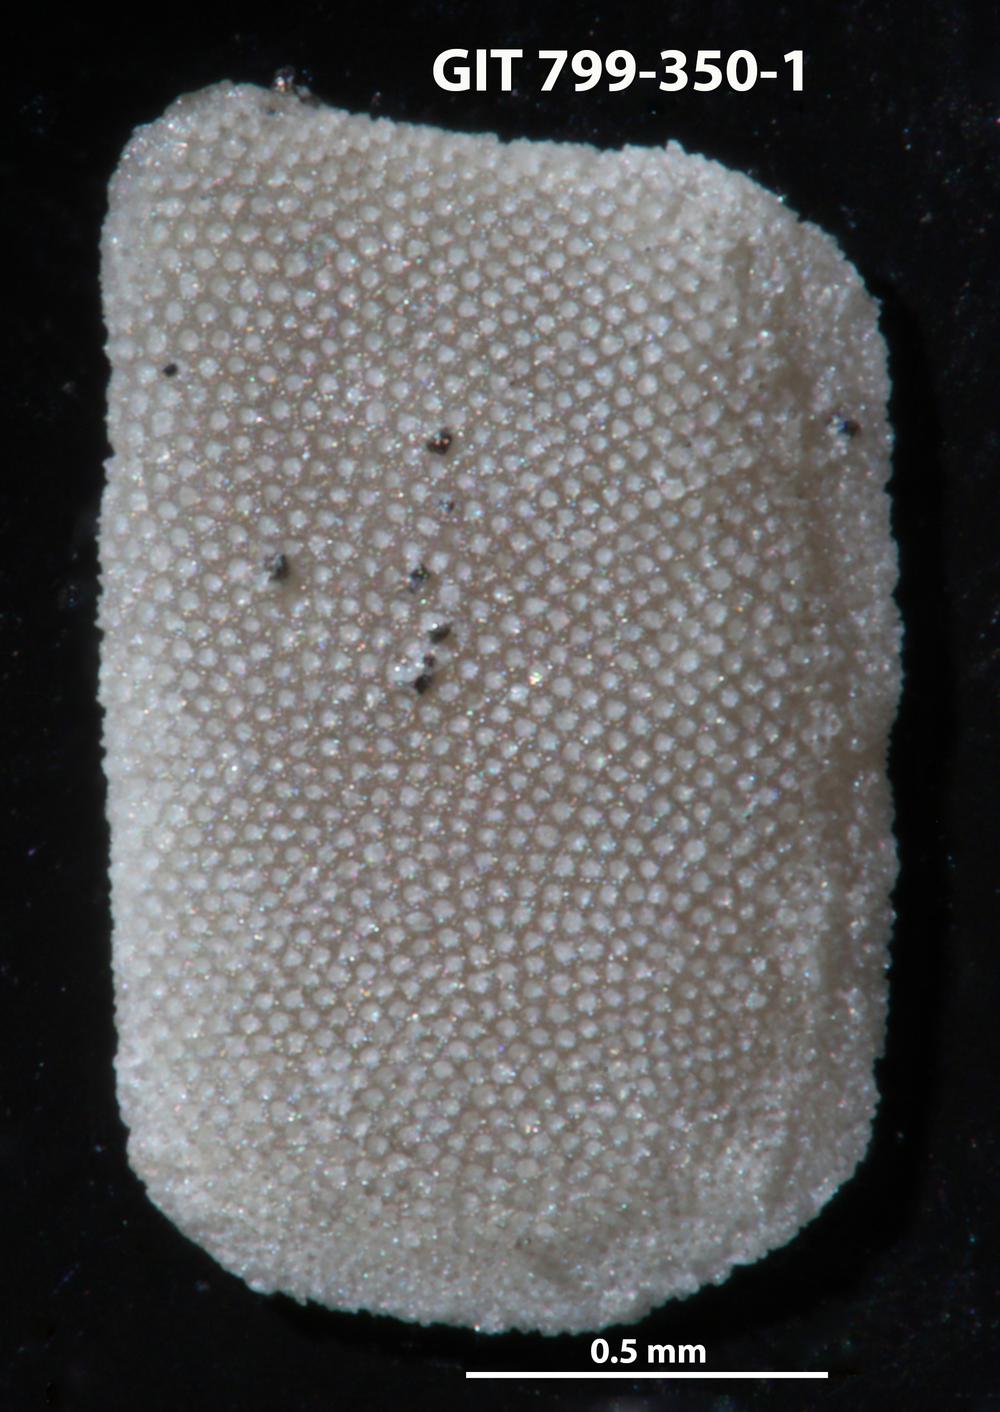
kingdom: Animalia
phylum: Echinodermata
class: Echinoidea
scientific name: Echinoidea
